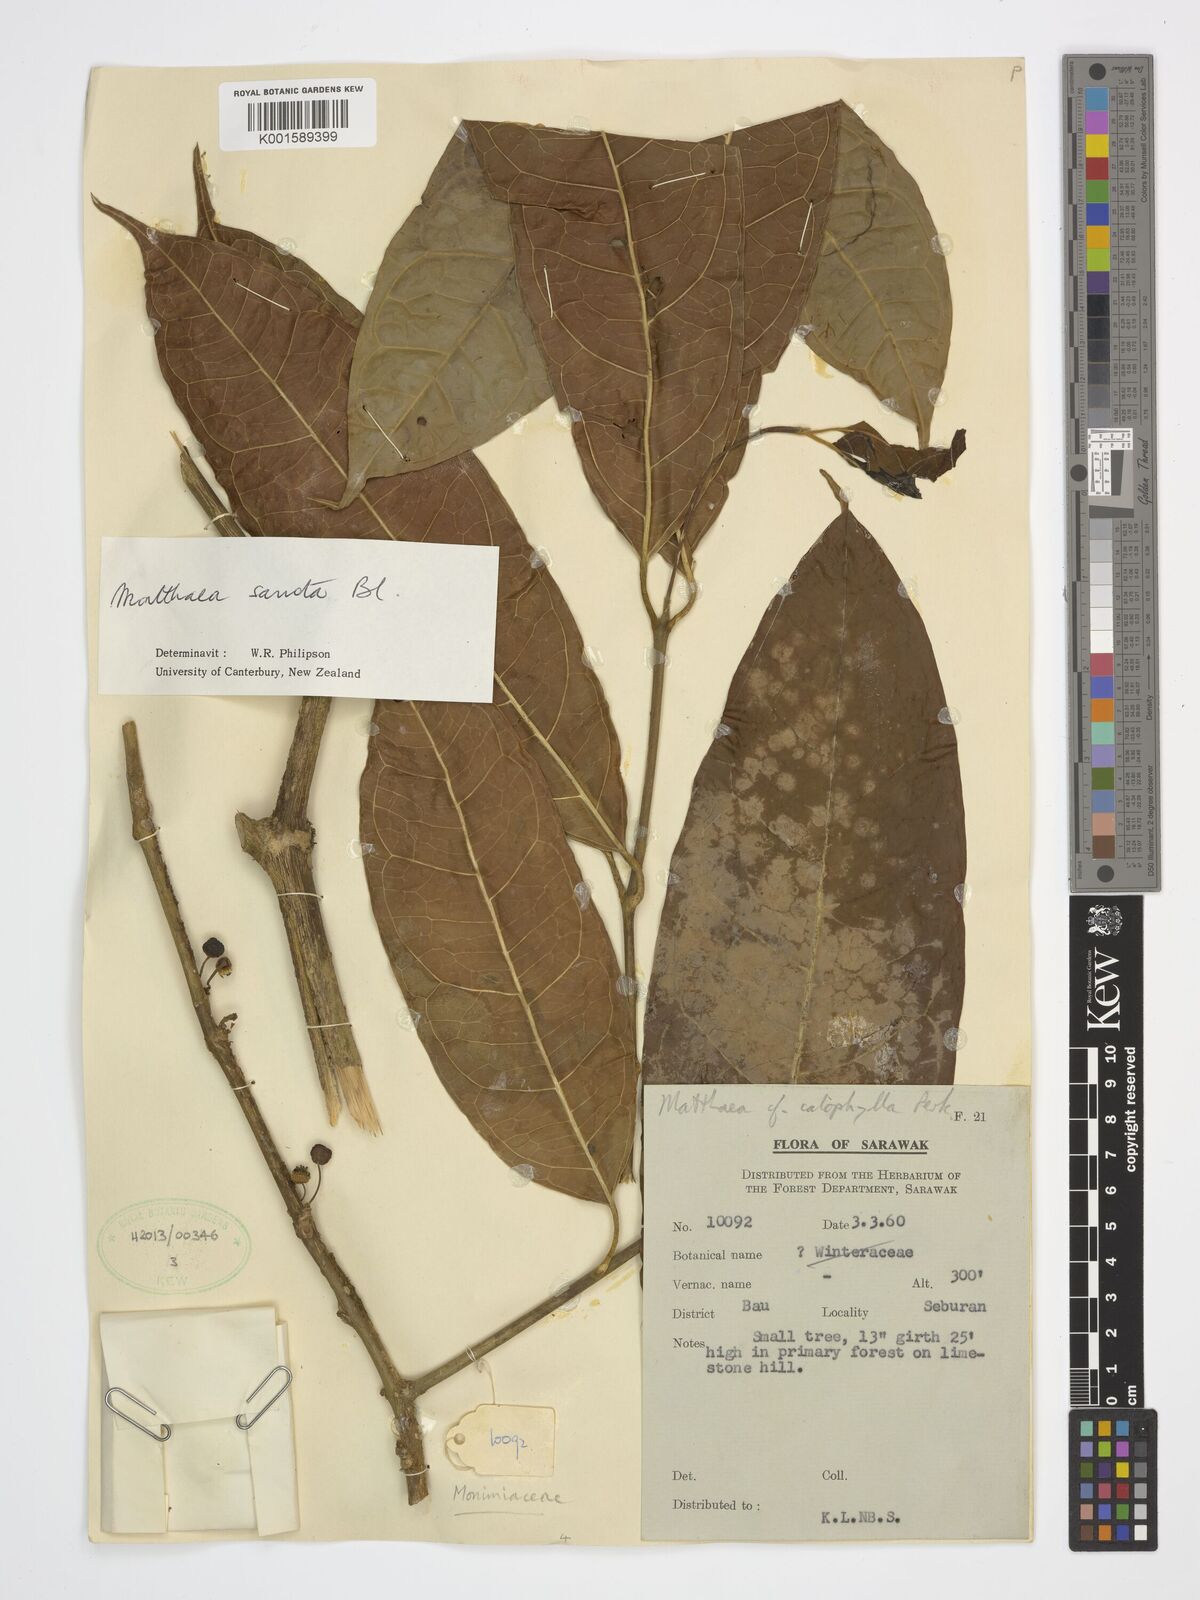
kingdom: Plantae
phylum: Tracheophyta
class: Magnoliopsida
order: Laurales
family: Monimiaceae
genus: Matthaea
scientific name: Matthaea sancta
